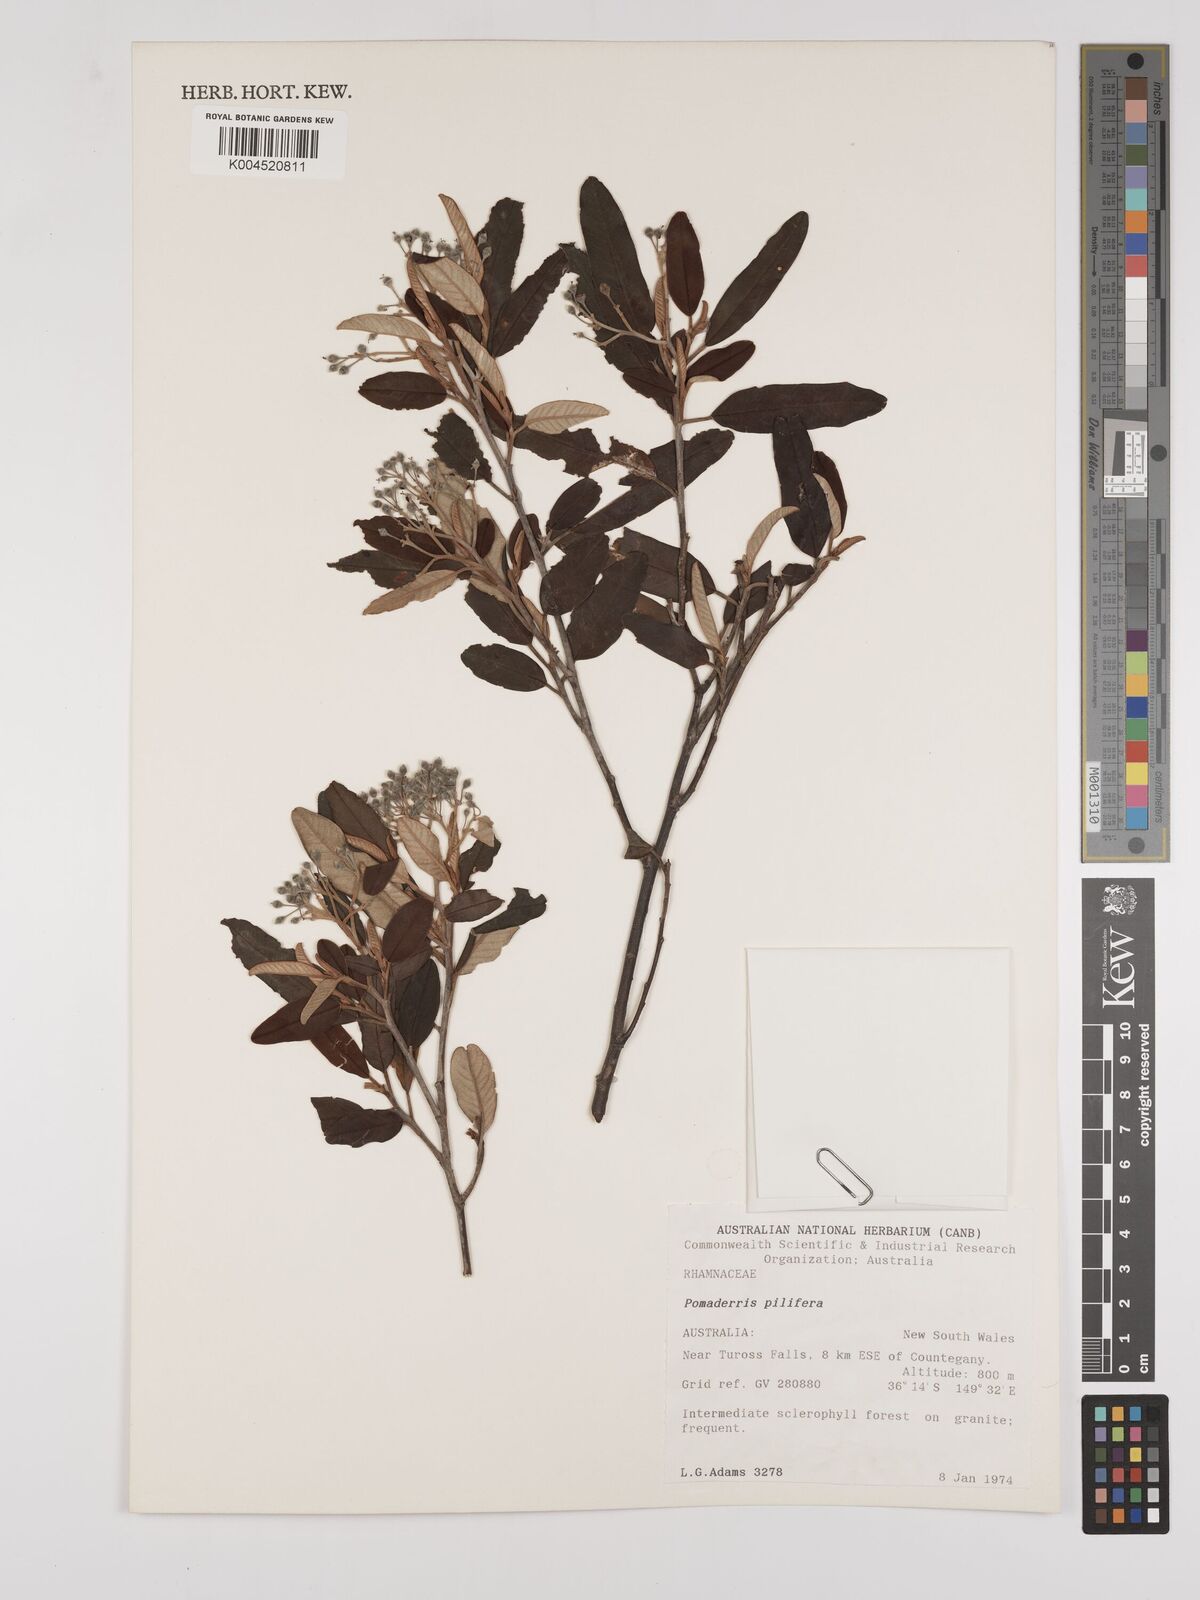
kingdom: Plantae
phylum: Tracheophyta
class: Magnoliopsida
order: Rosales
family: Rhamnaceae
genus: Pomaderris
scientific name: Pomaderris pilifera
